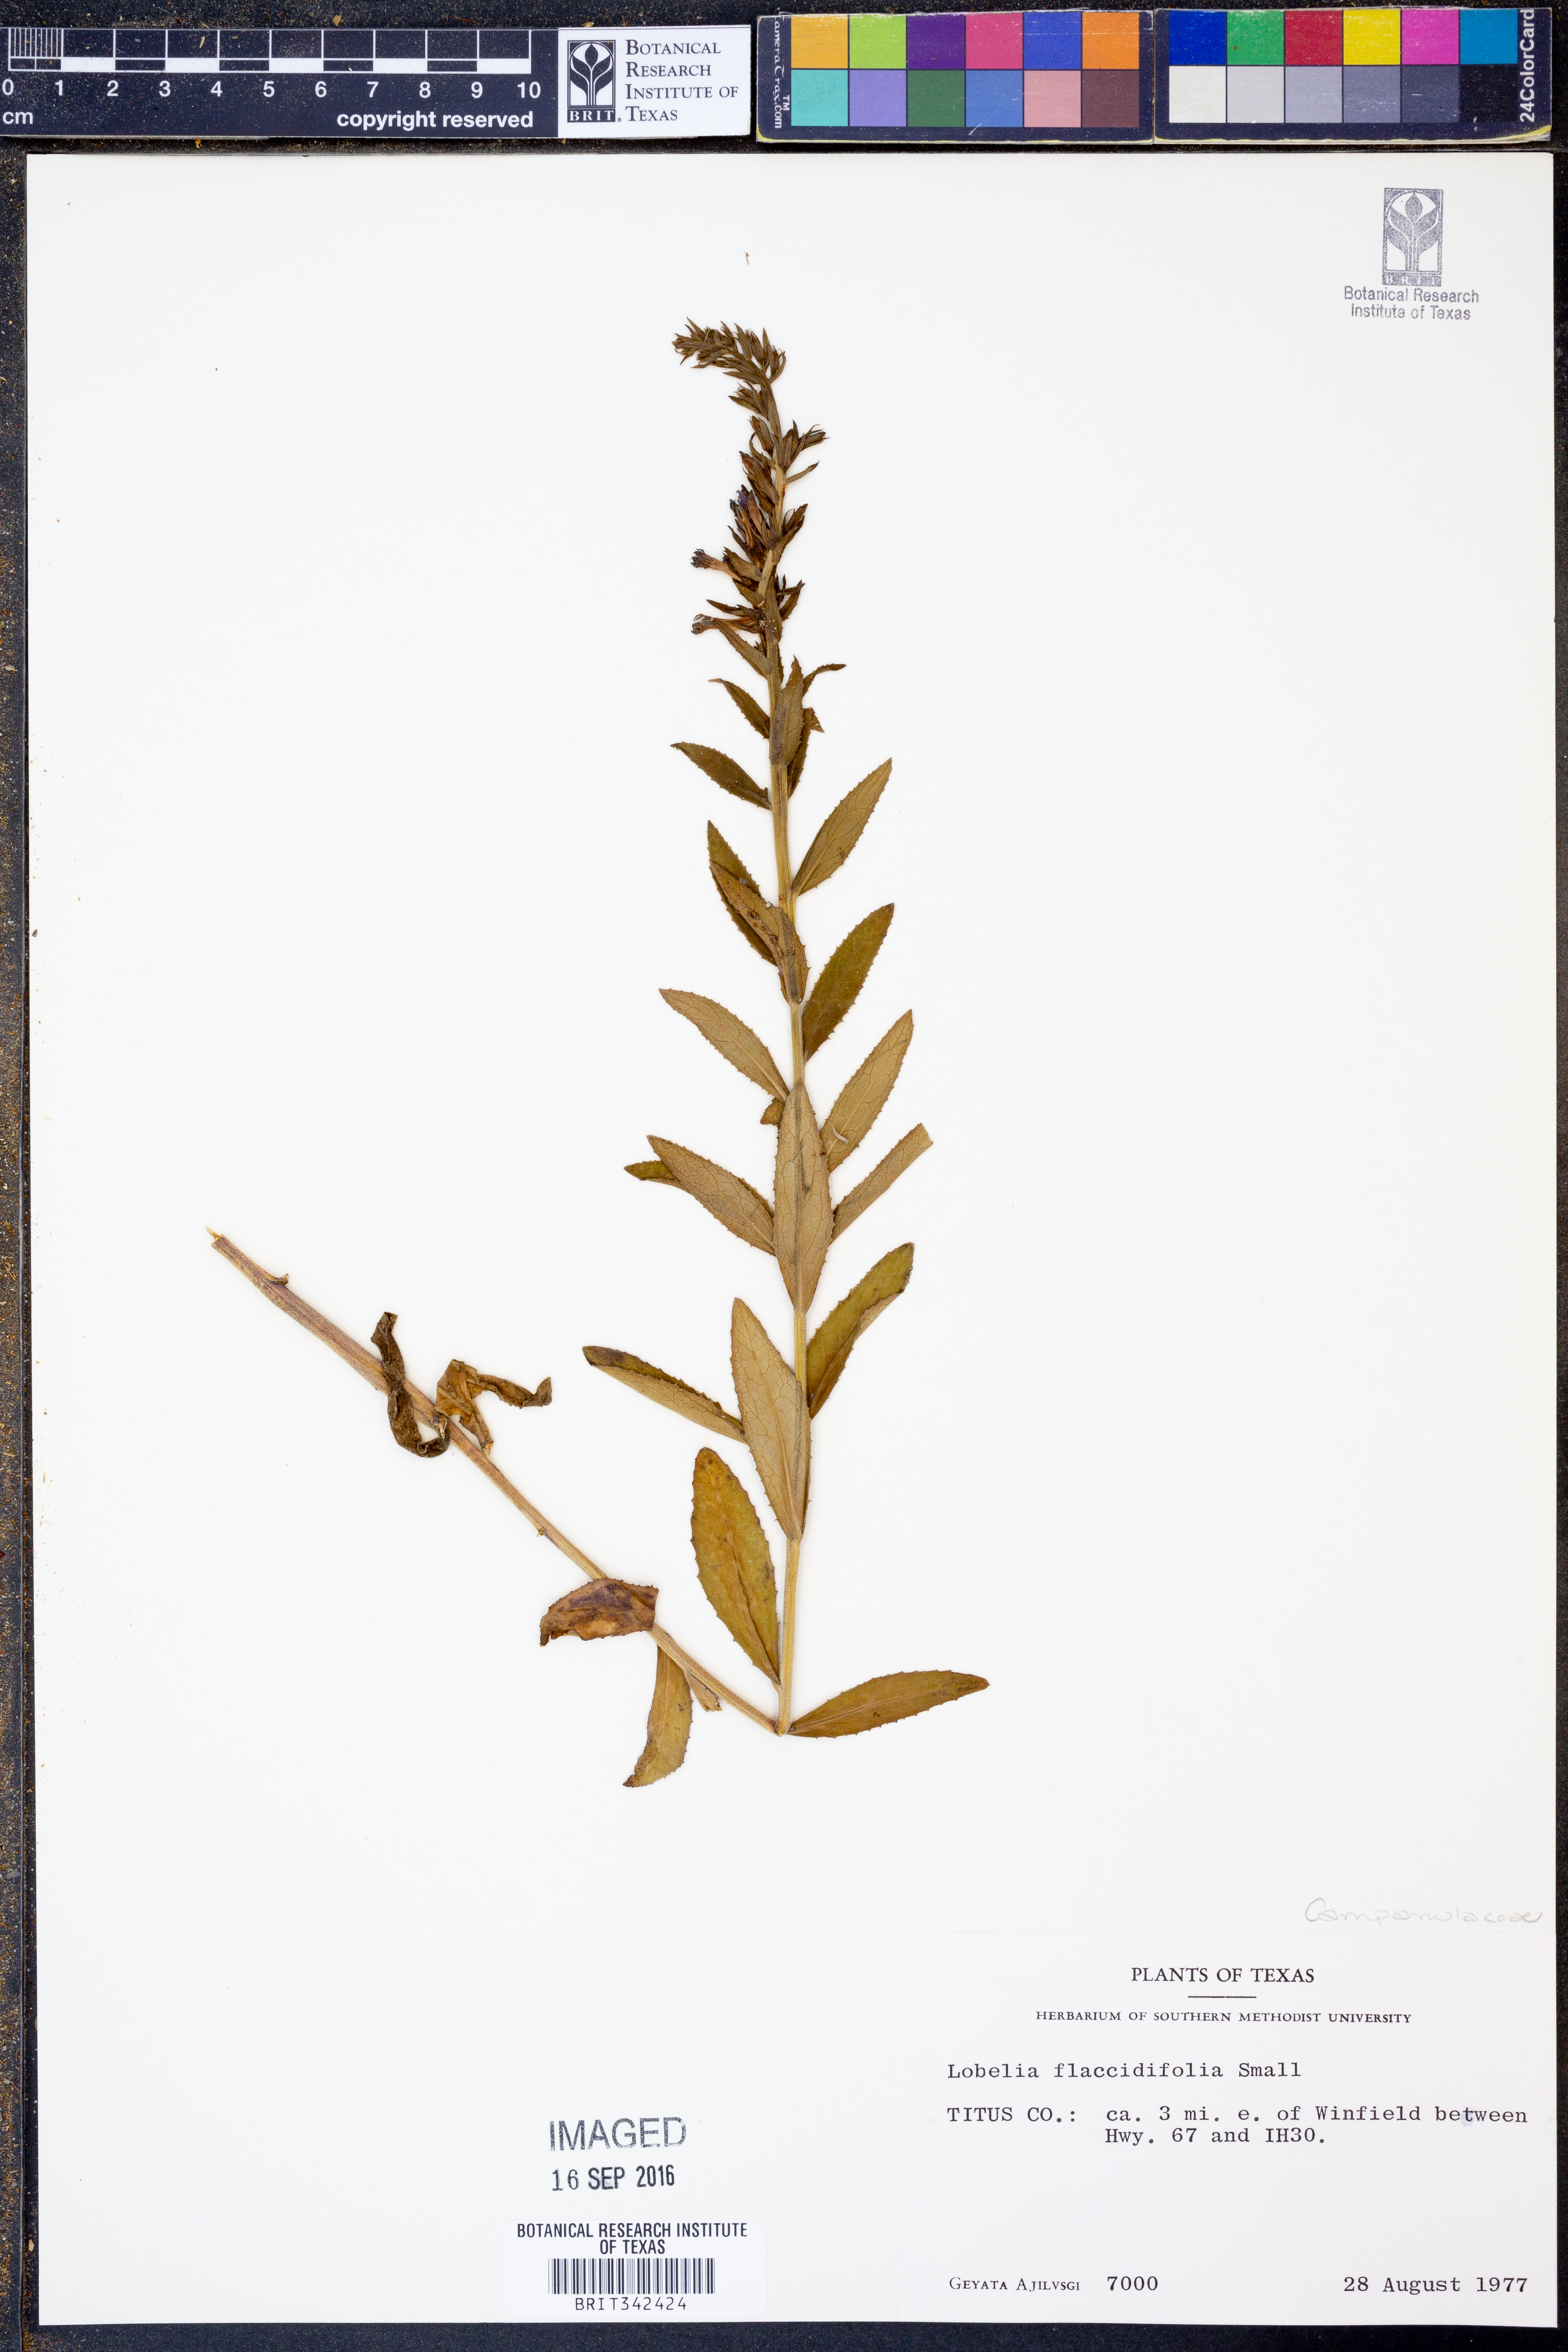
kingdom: Plantae
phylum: Tracheophyta
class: Magnoliopsida
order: Asterales
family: Campanulaceae
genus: Lobelia
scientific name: Lobelia flaccidifolia
